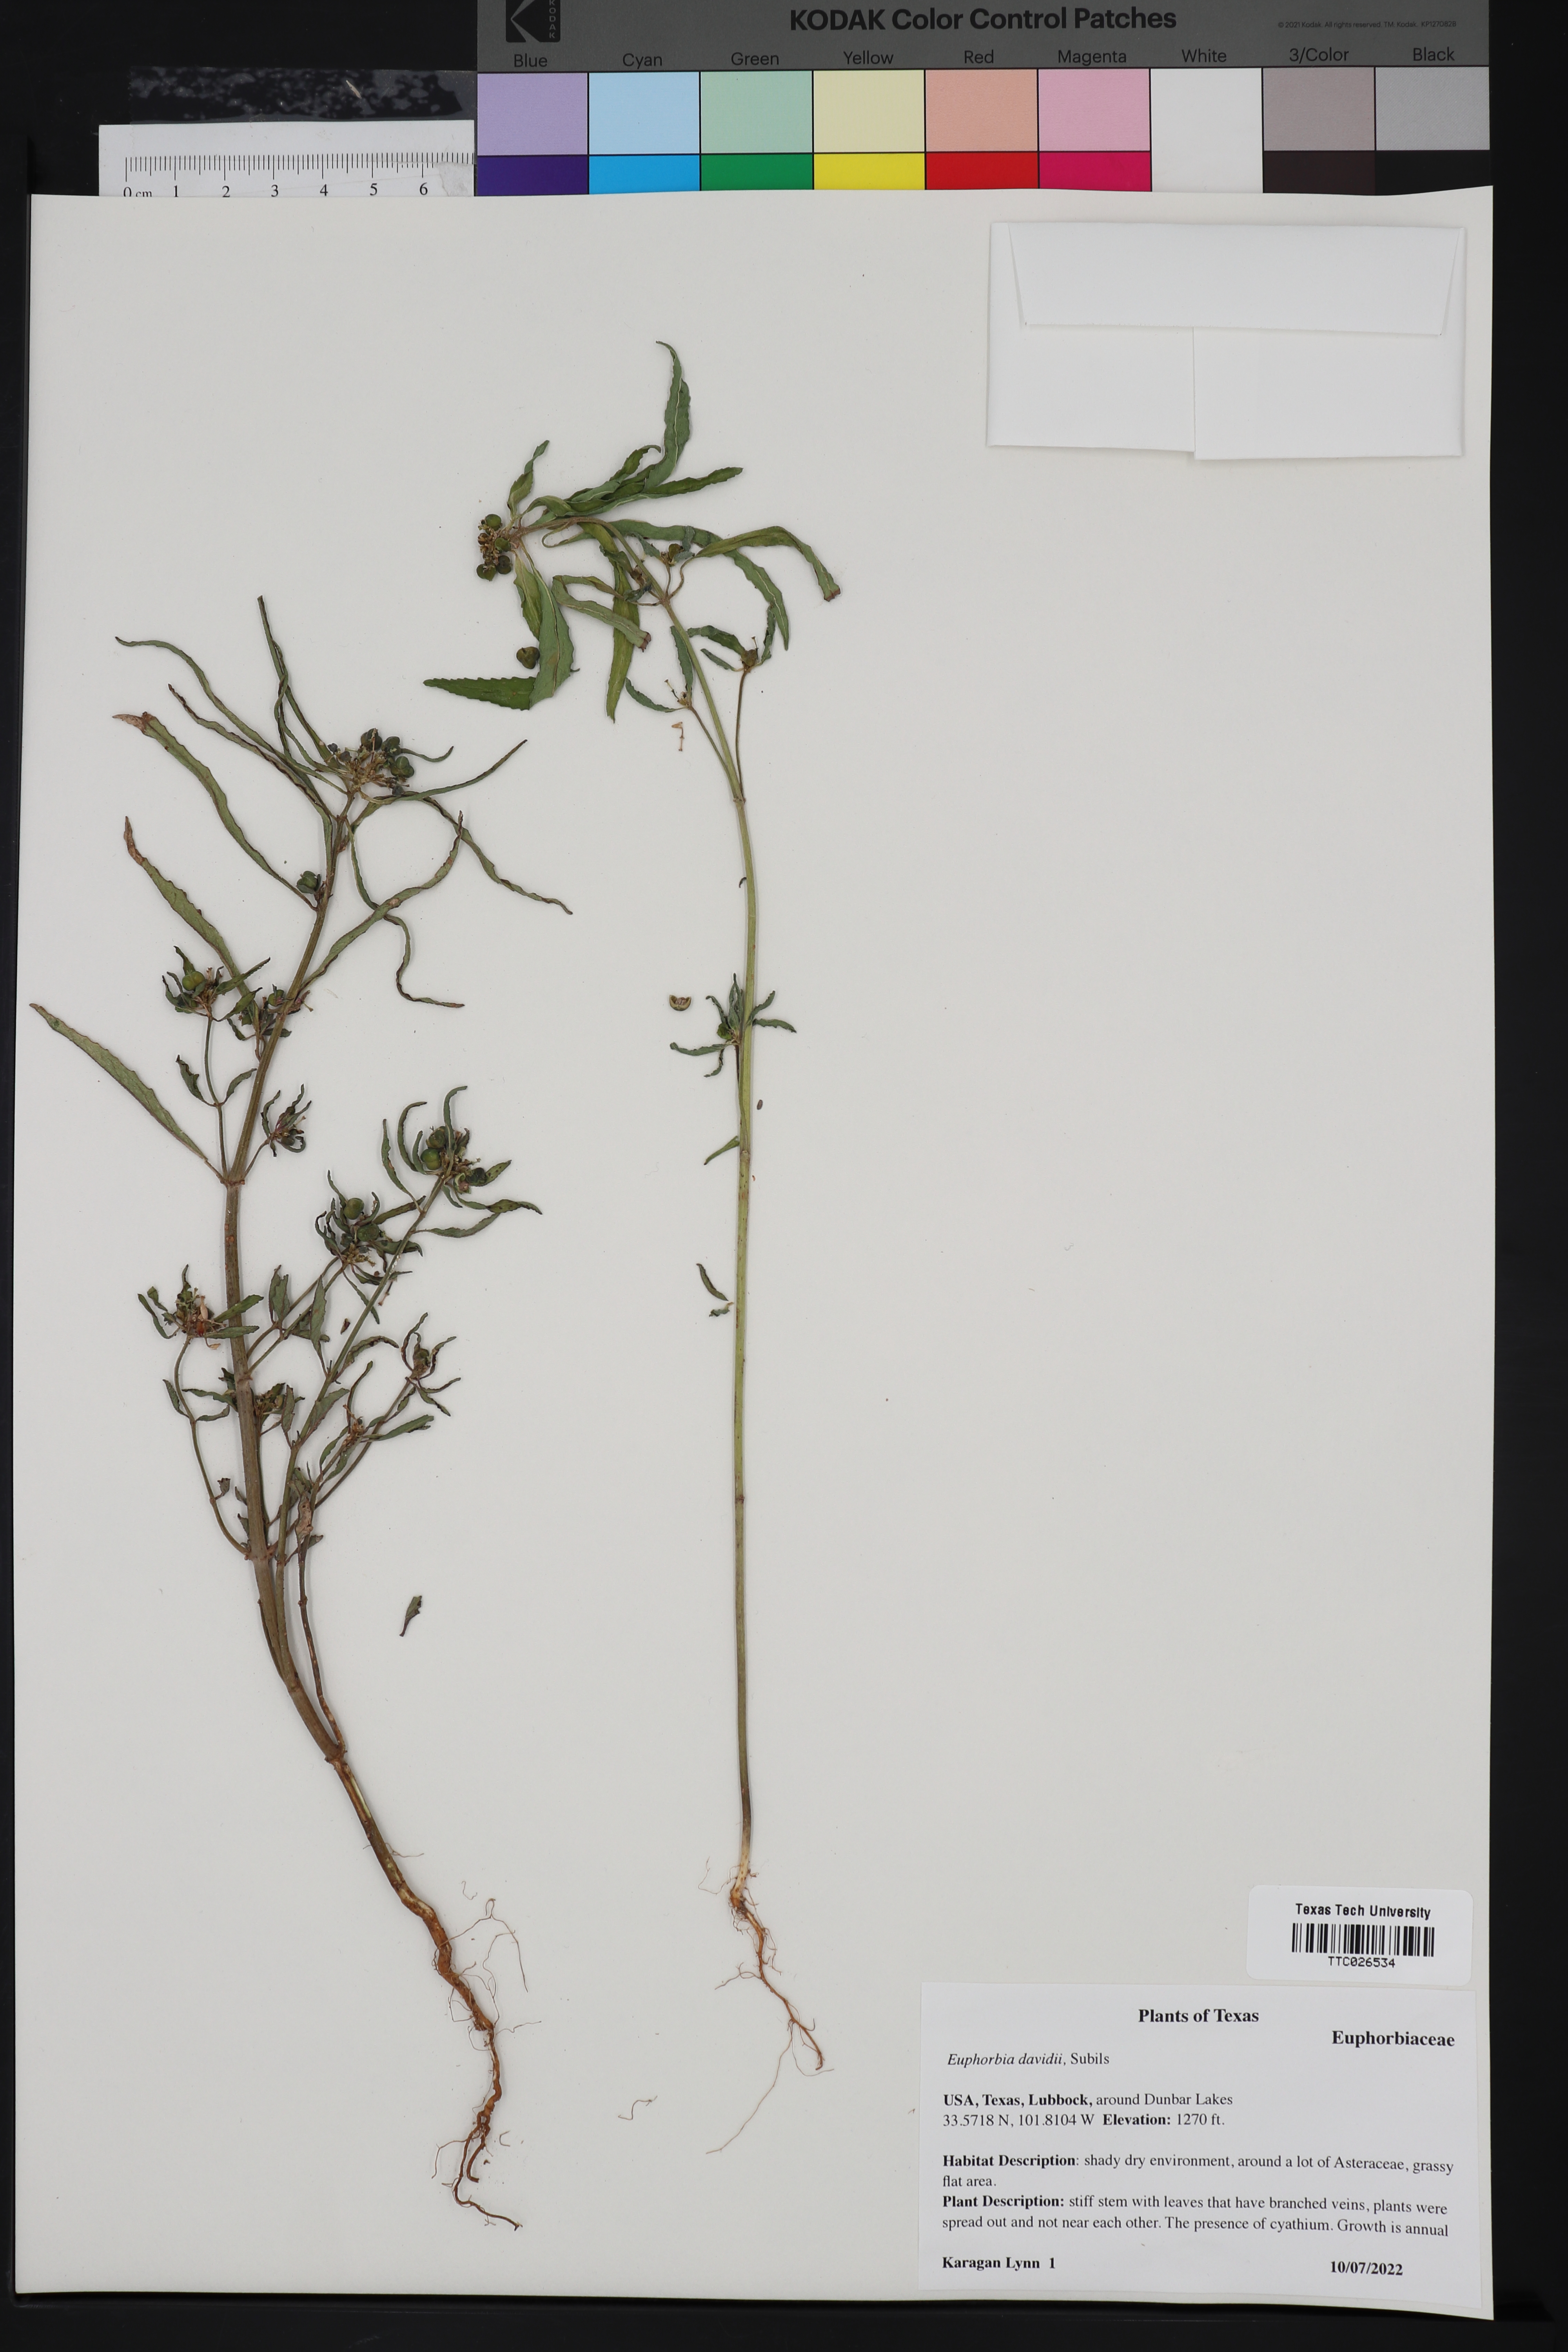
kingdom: Plantae
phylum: Tracheophyta
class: Magnoliopsida
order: Malpighiales
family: Euphorbiaceae
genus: Euphorbia
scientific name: Euphorbia davidii
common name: David's spurge
